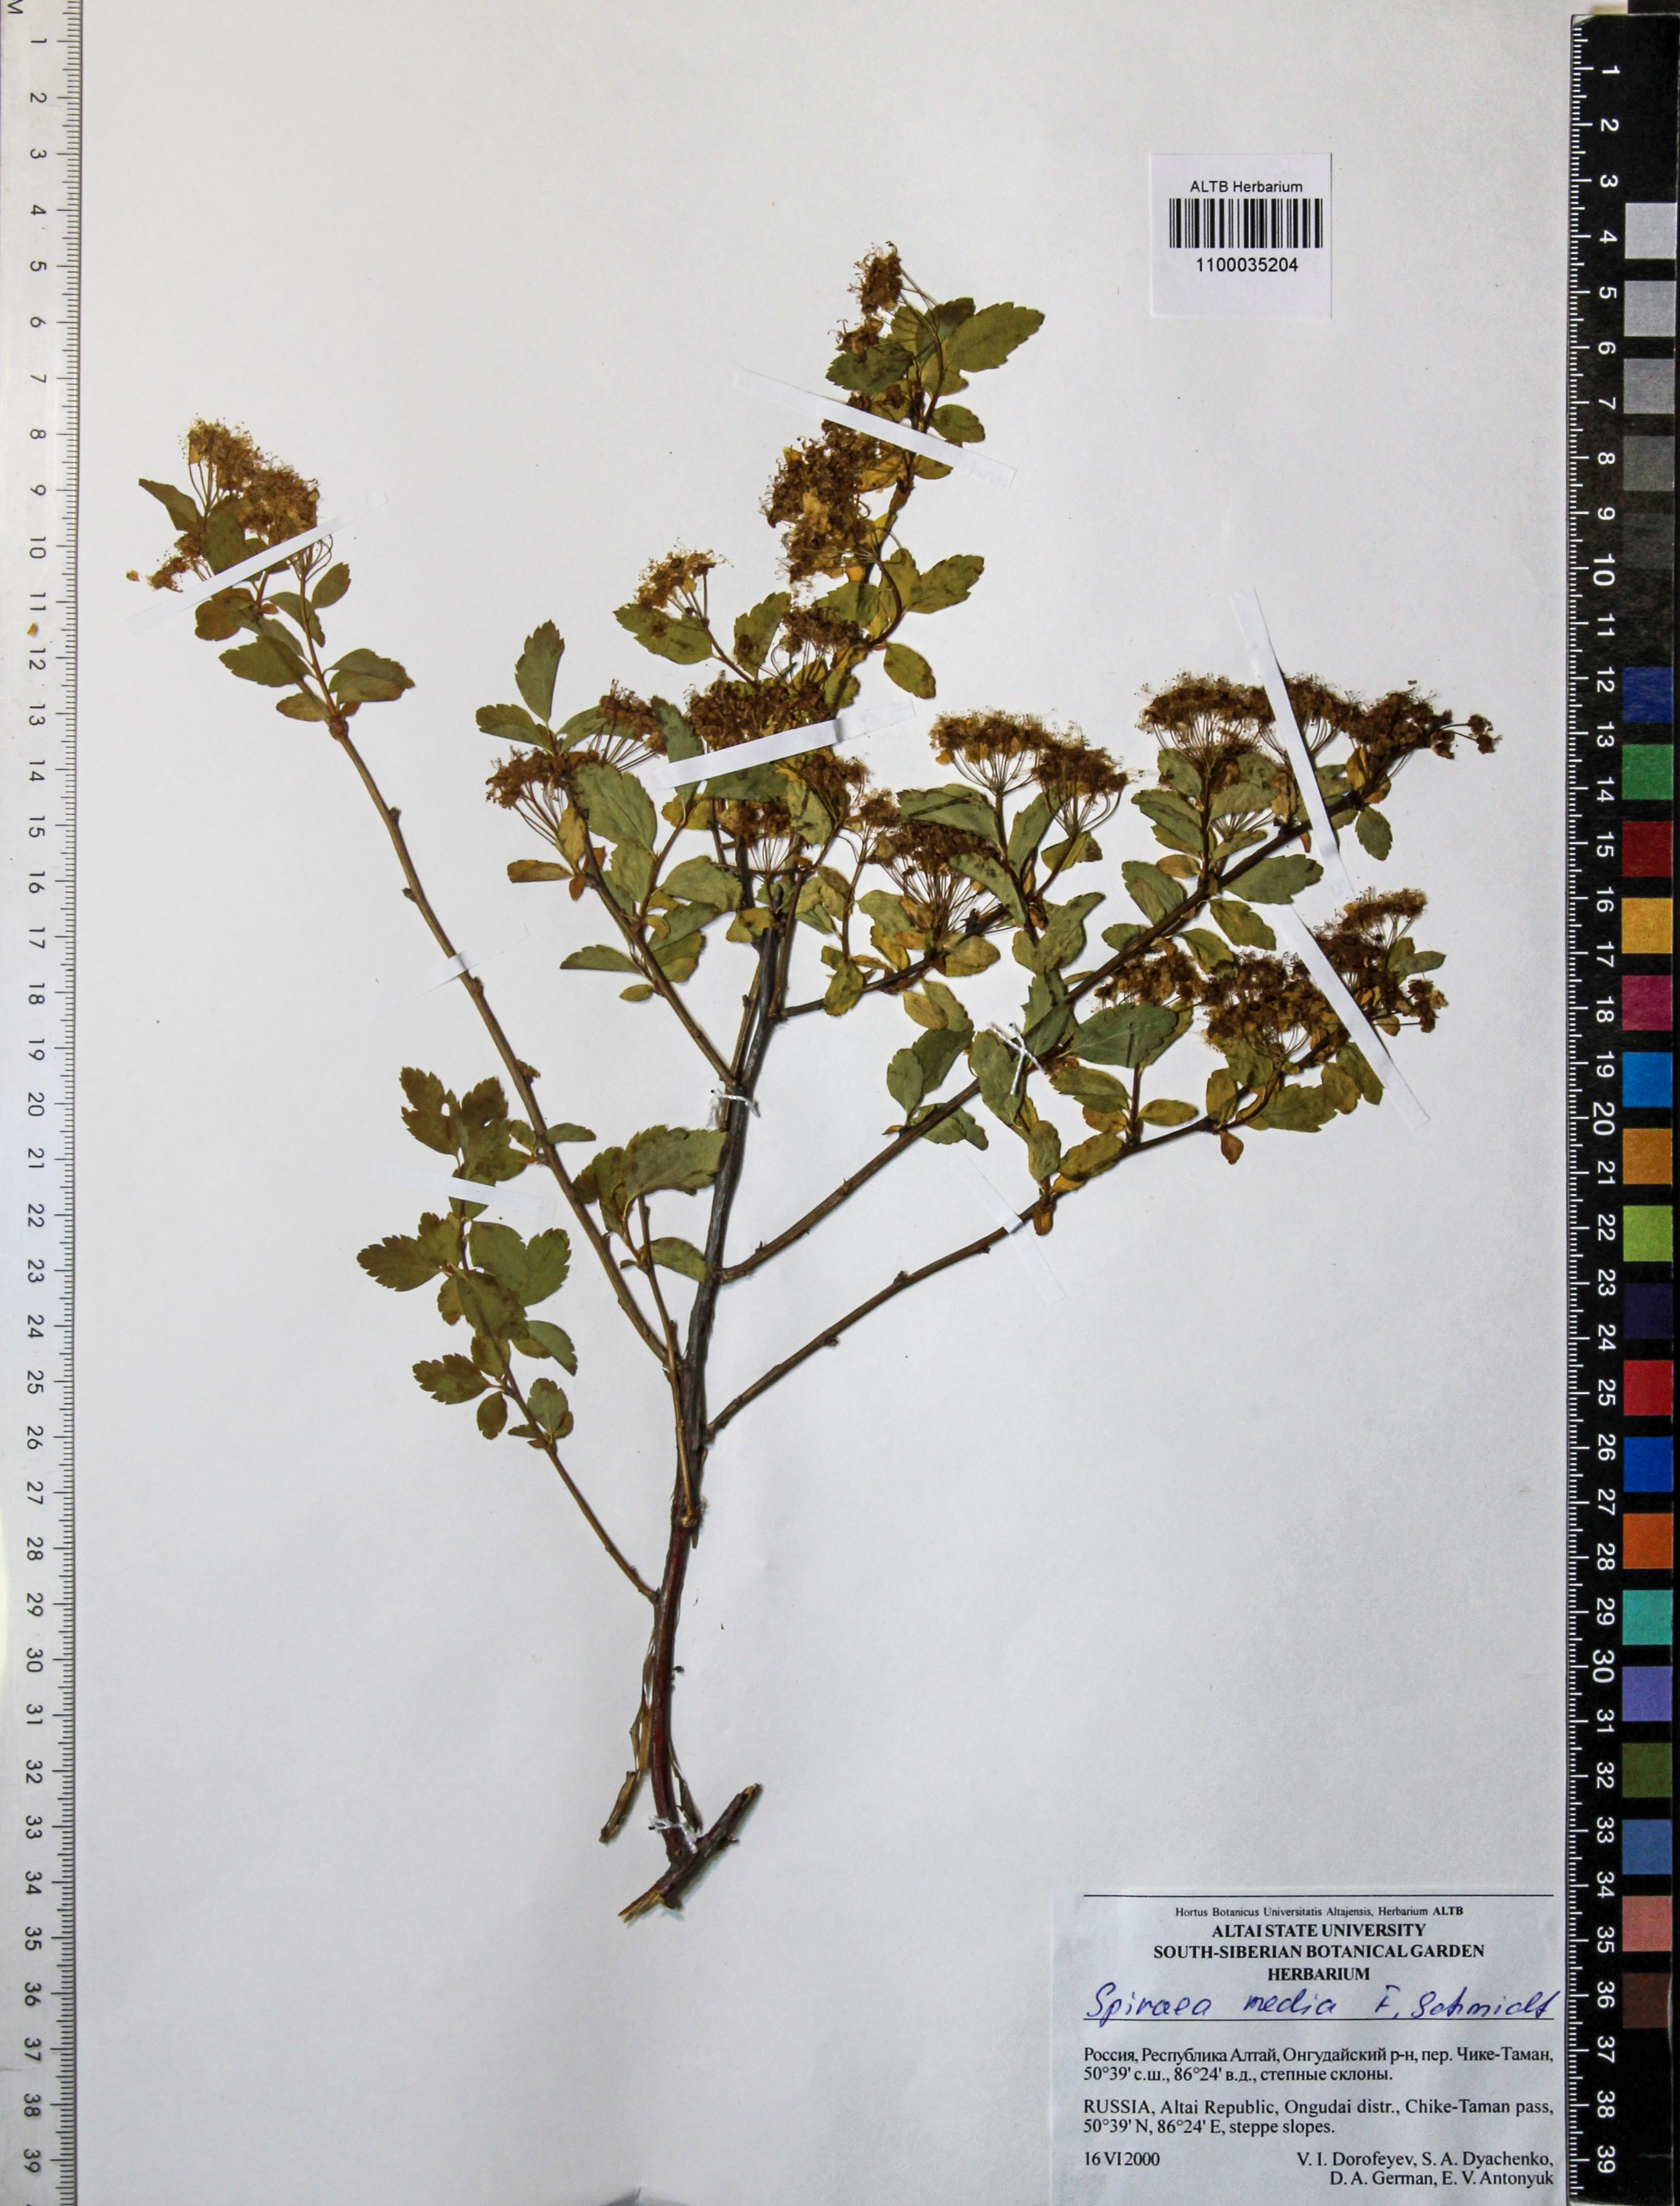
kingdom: Plantae
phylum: Tracheophyta
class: Magnoliopsida
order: Rosales
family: Rosaceae
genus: Spiraea
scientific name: Spiraea media
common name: Russian spiraea
